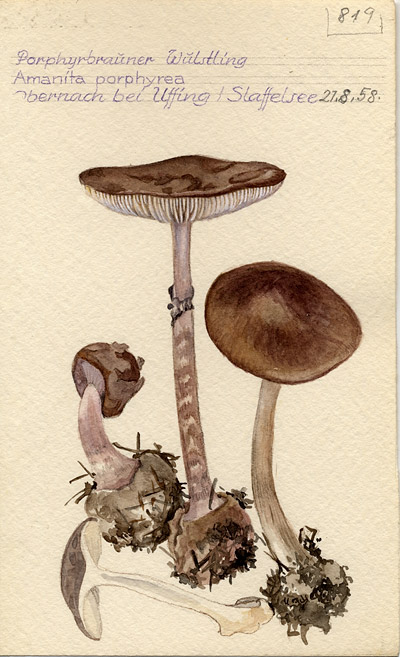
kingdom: Fungi
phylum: Basidiomycota
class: Agaricomycetes
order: Agaricales
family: Amanitaceae
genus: Amanita
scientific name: Amanita porphyria
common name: Grey veiled amanita
